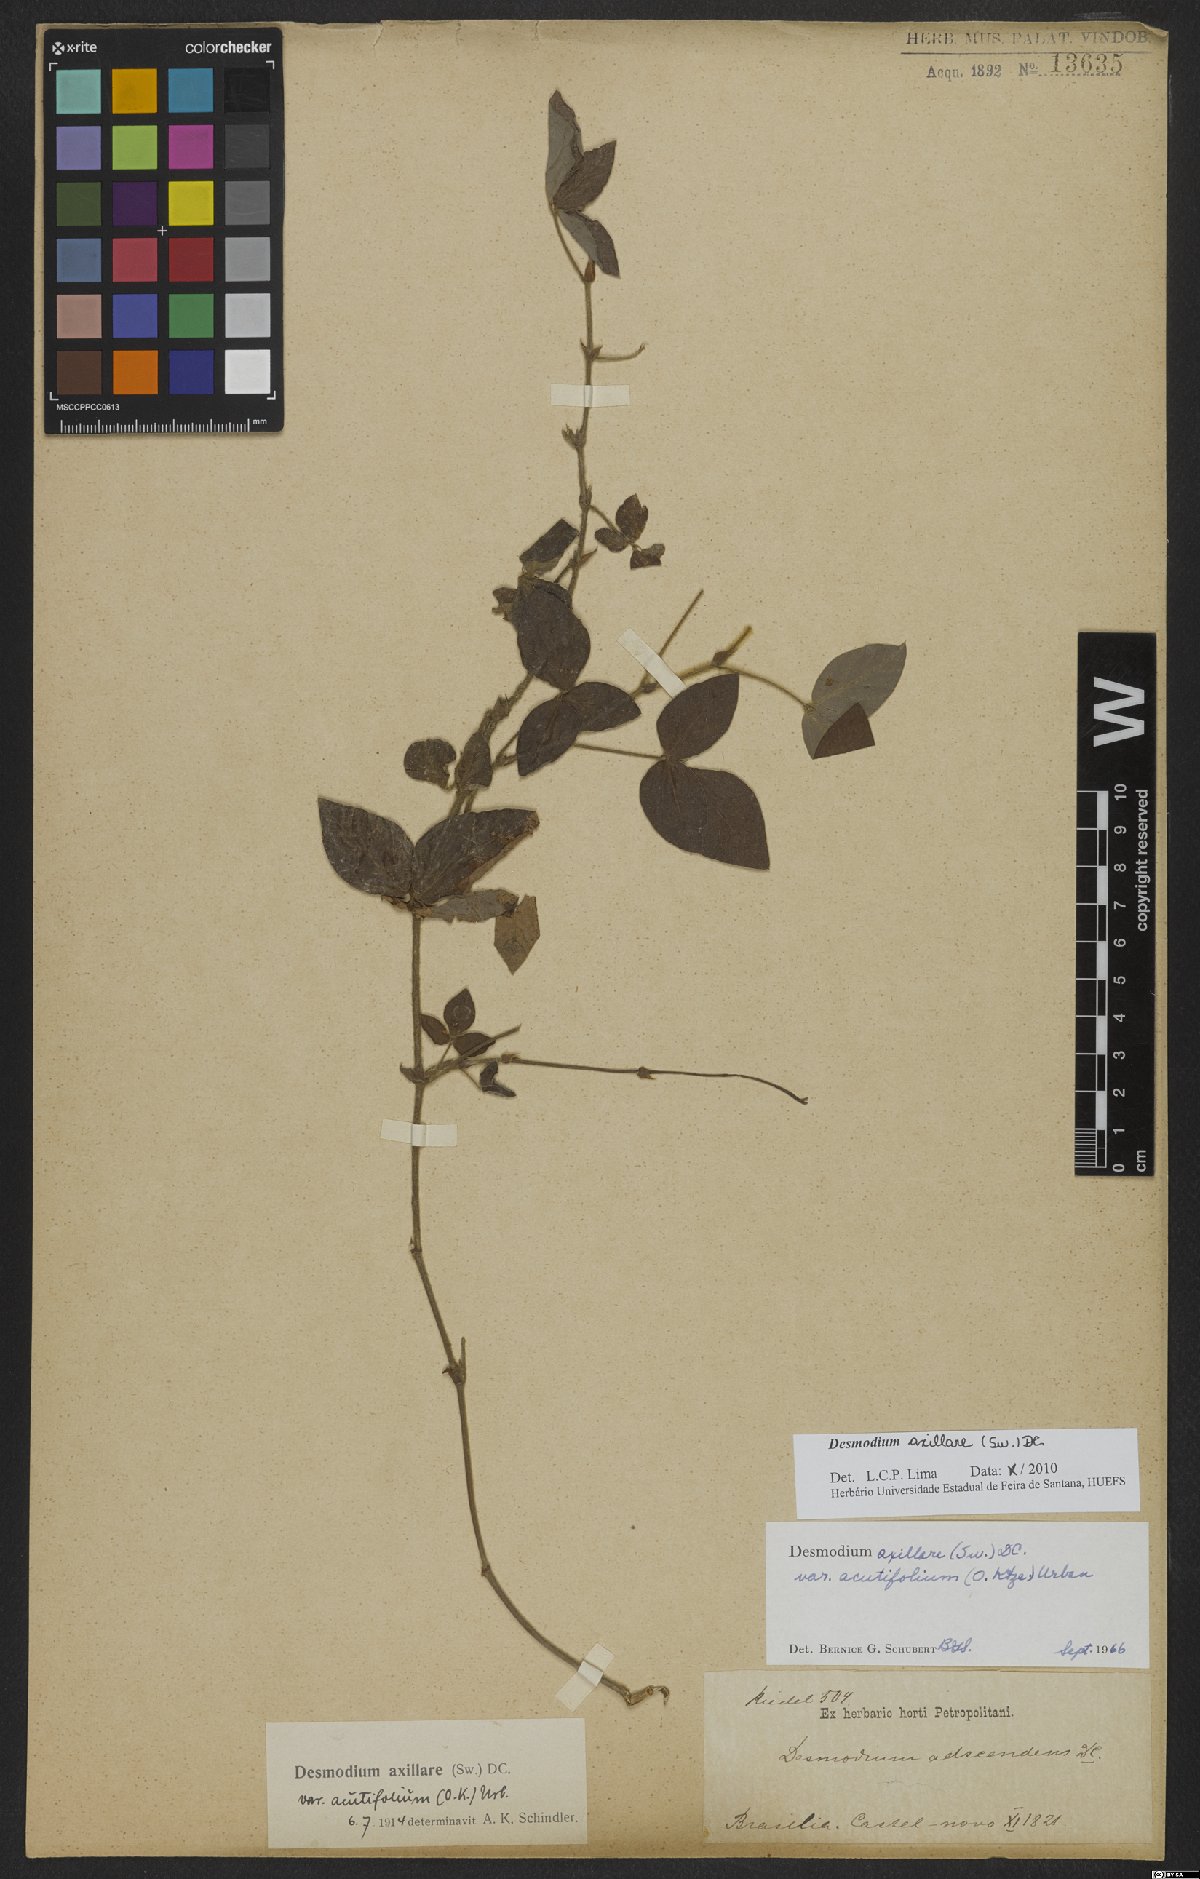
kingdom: Plantae
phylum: Tracheophyta
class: Magnoliopsida
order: Fabales
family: Fabaceae
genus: Desmodium
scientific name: Desmodium axillare
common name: Wire with
